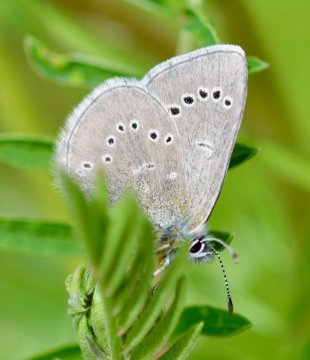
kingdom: Animalia
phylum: Arthropoda
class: Insecta
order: Lepidoptera
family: Lycaenidae
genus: Glaucopsyche
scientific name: Glaucopsyche lygdamus
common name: Silvery Blue
